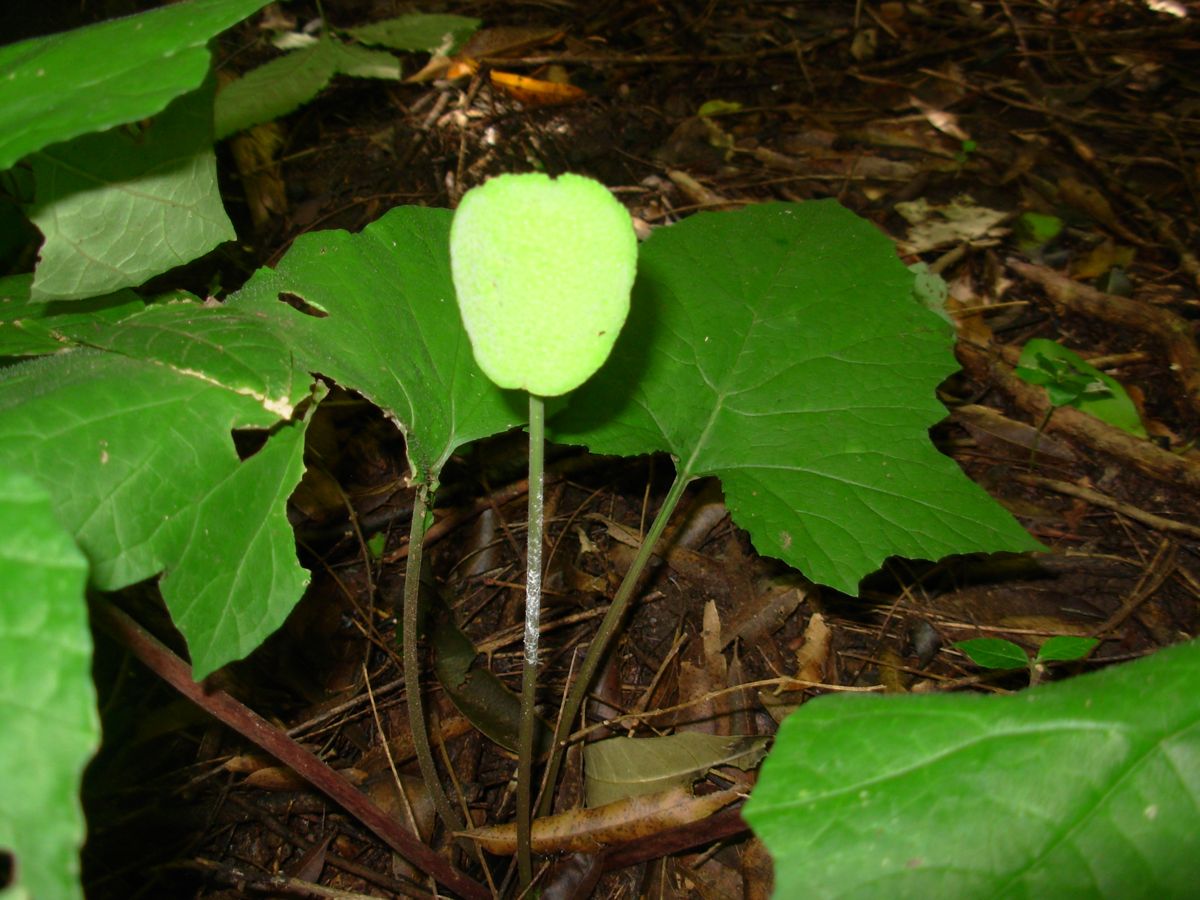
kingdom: Plantae
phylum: Tracheophyta
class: Magnoliopsida
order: Rosales
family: Moraceae
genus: Dorstenia
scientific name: Dorstenia contrajerva
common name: Tusilla
